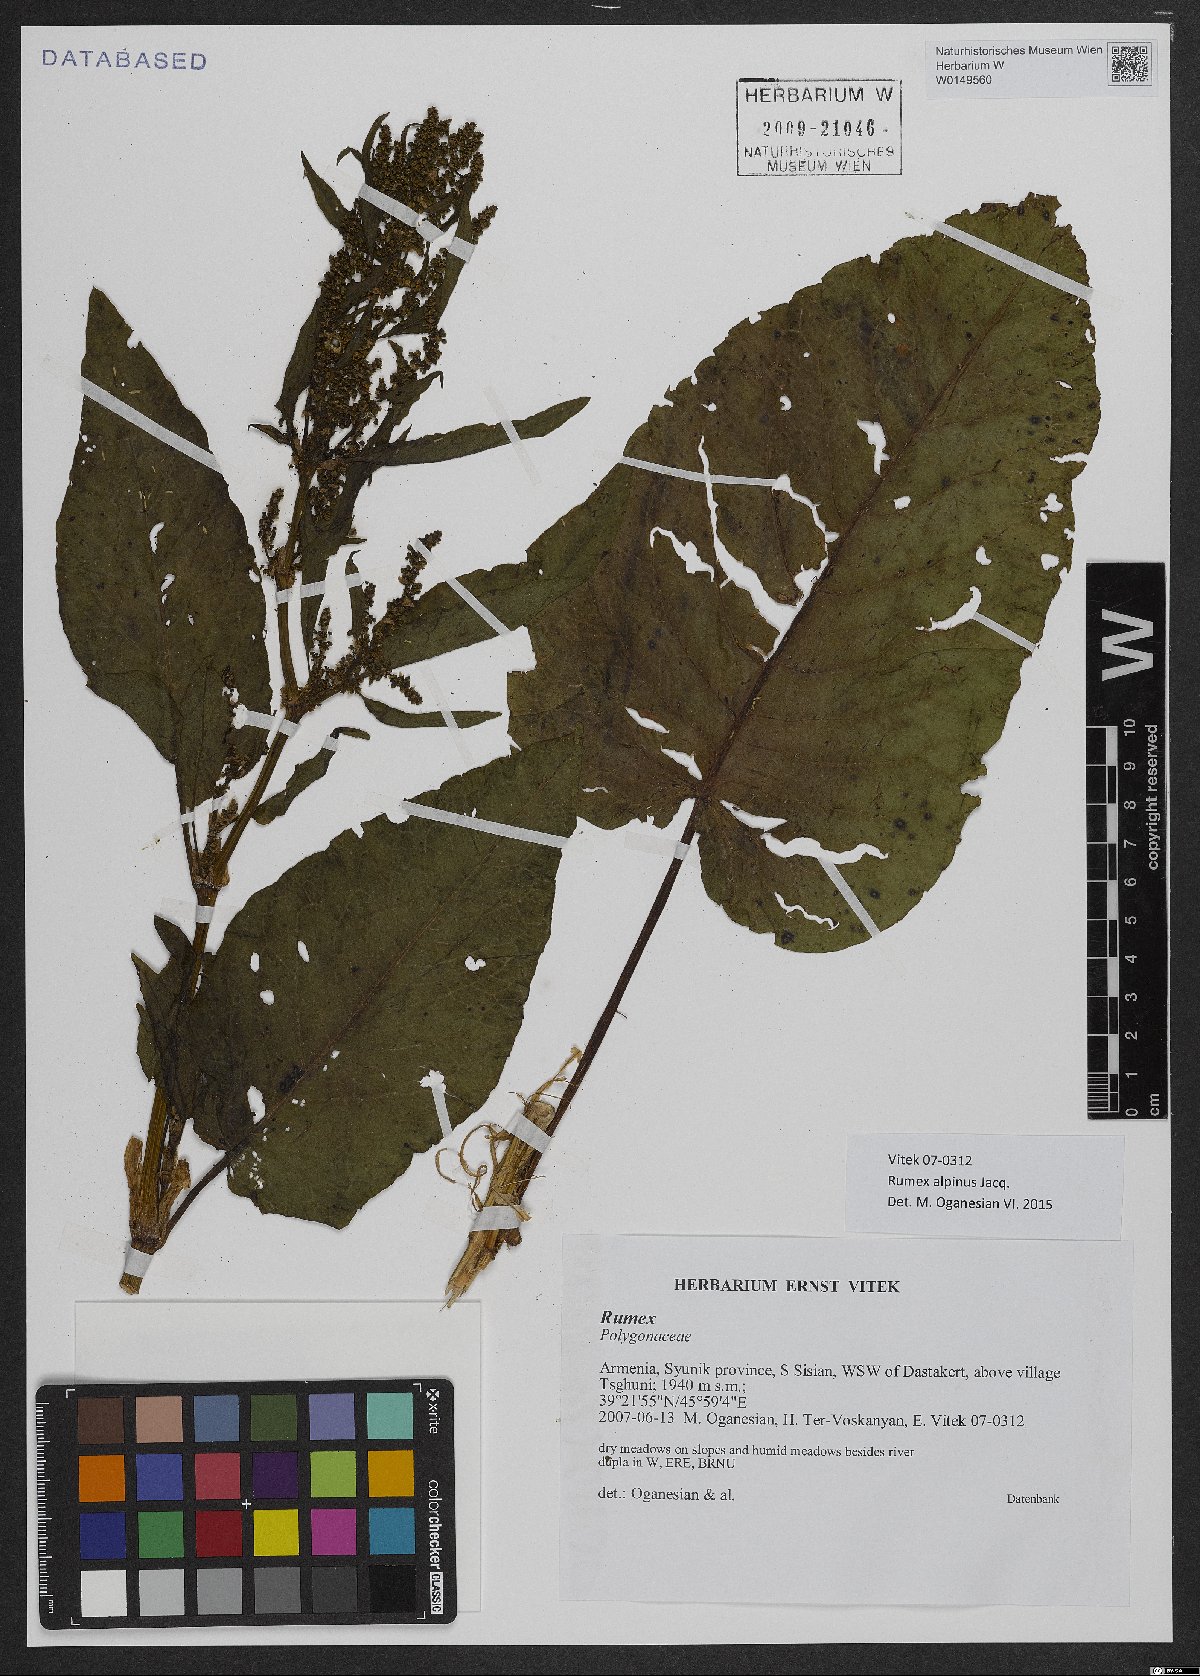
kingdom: Plantae
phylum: Tracheophyta
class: Magnoliopsida
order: Caryophyllales
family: Polygonaceae
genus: Rumex
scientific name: Rumex alpinus
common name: Alpine dock
